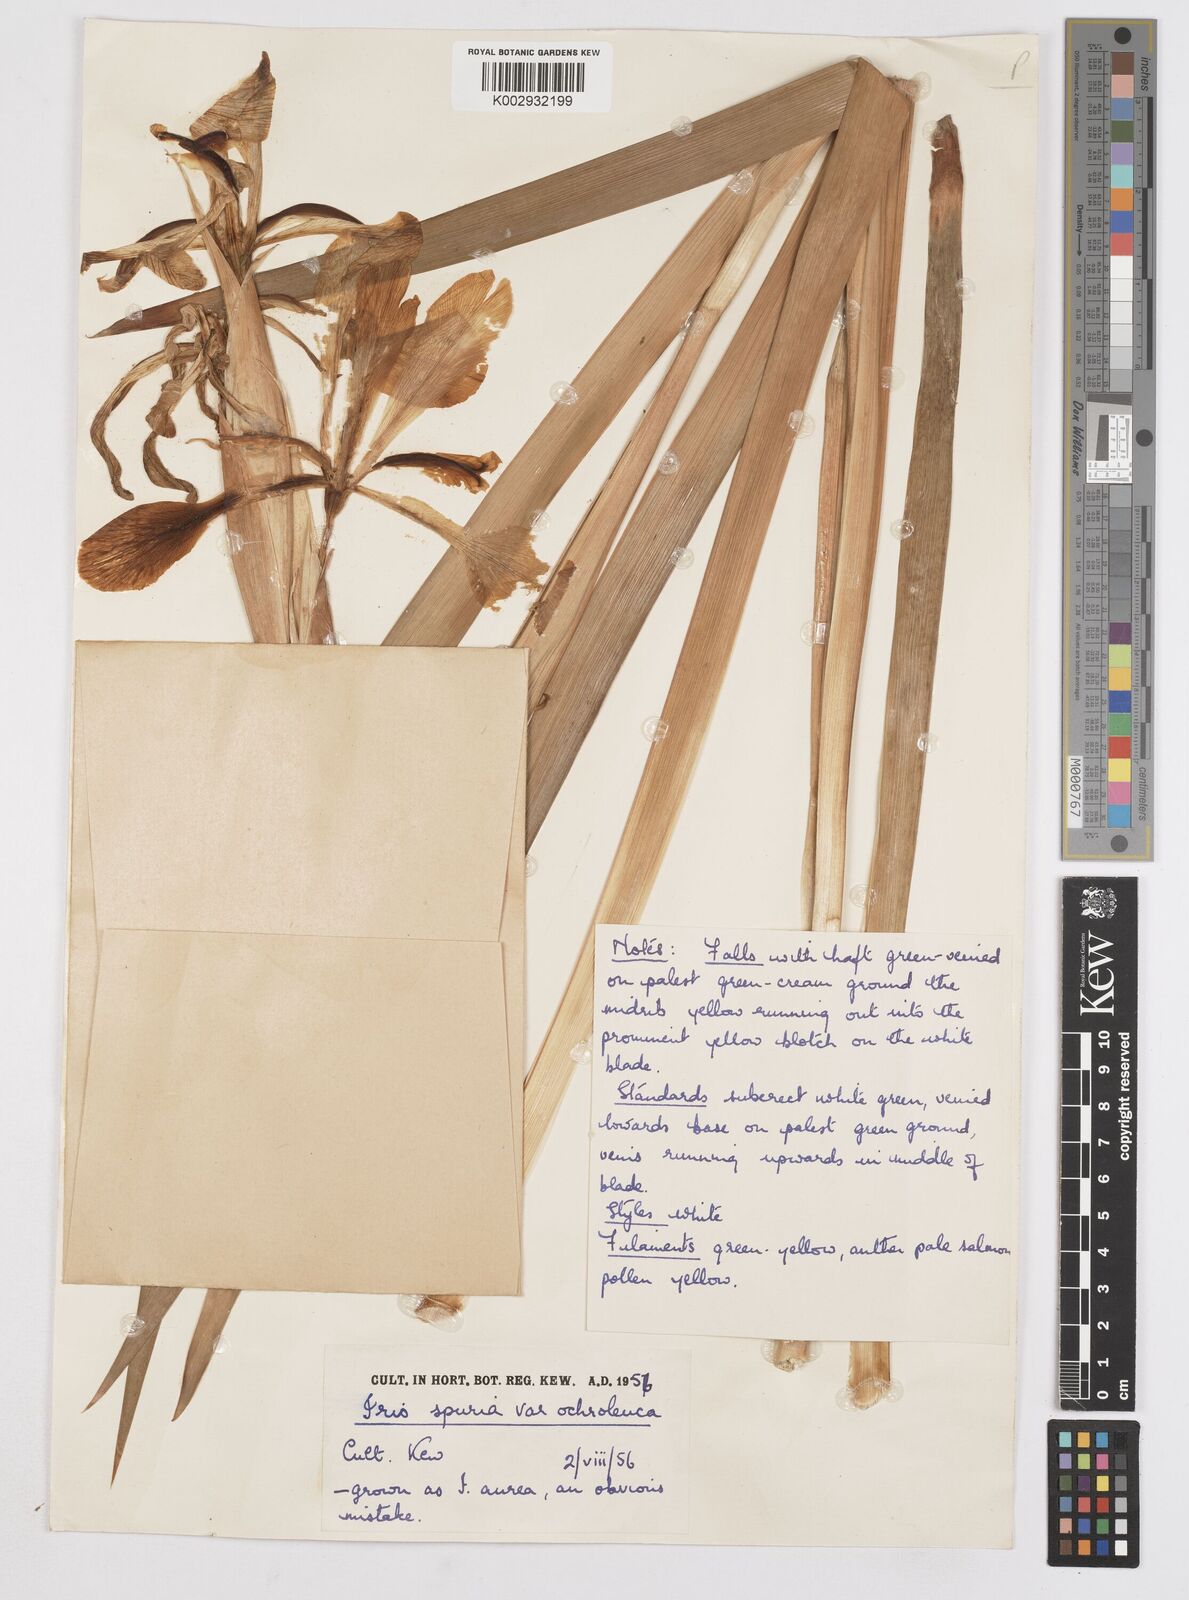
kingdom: Plantae
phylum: Tracheophyta
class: Liliopsida
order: Asparagales
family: Iridaceae
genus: Iris
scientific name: Iris orientalis
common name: Turkish iris
